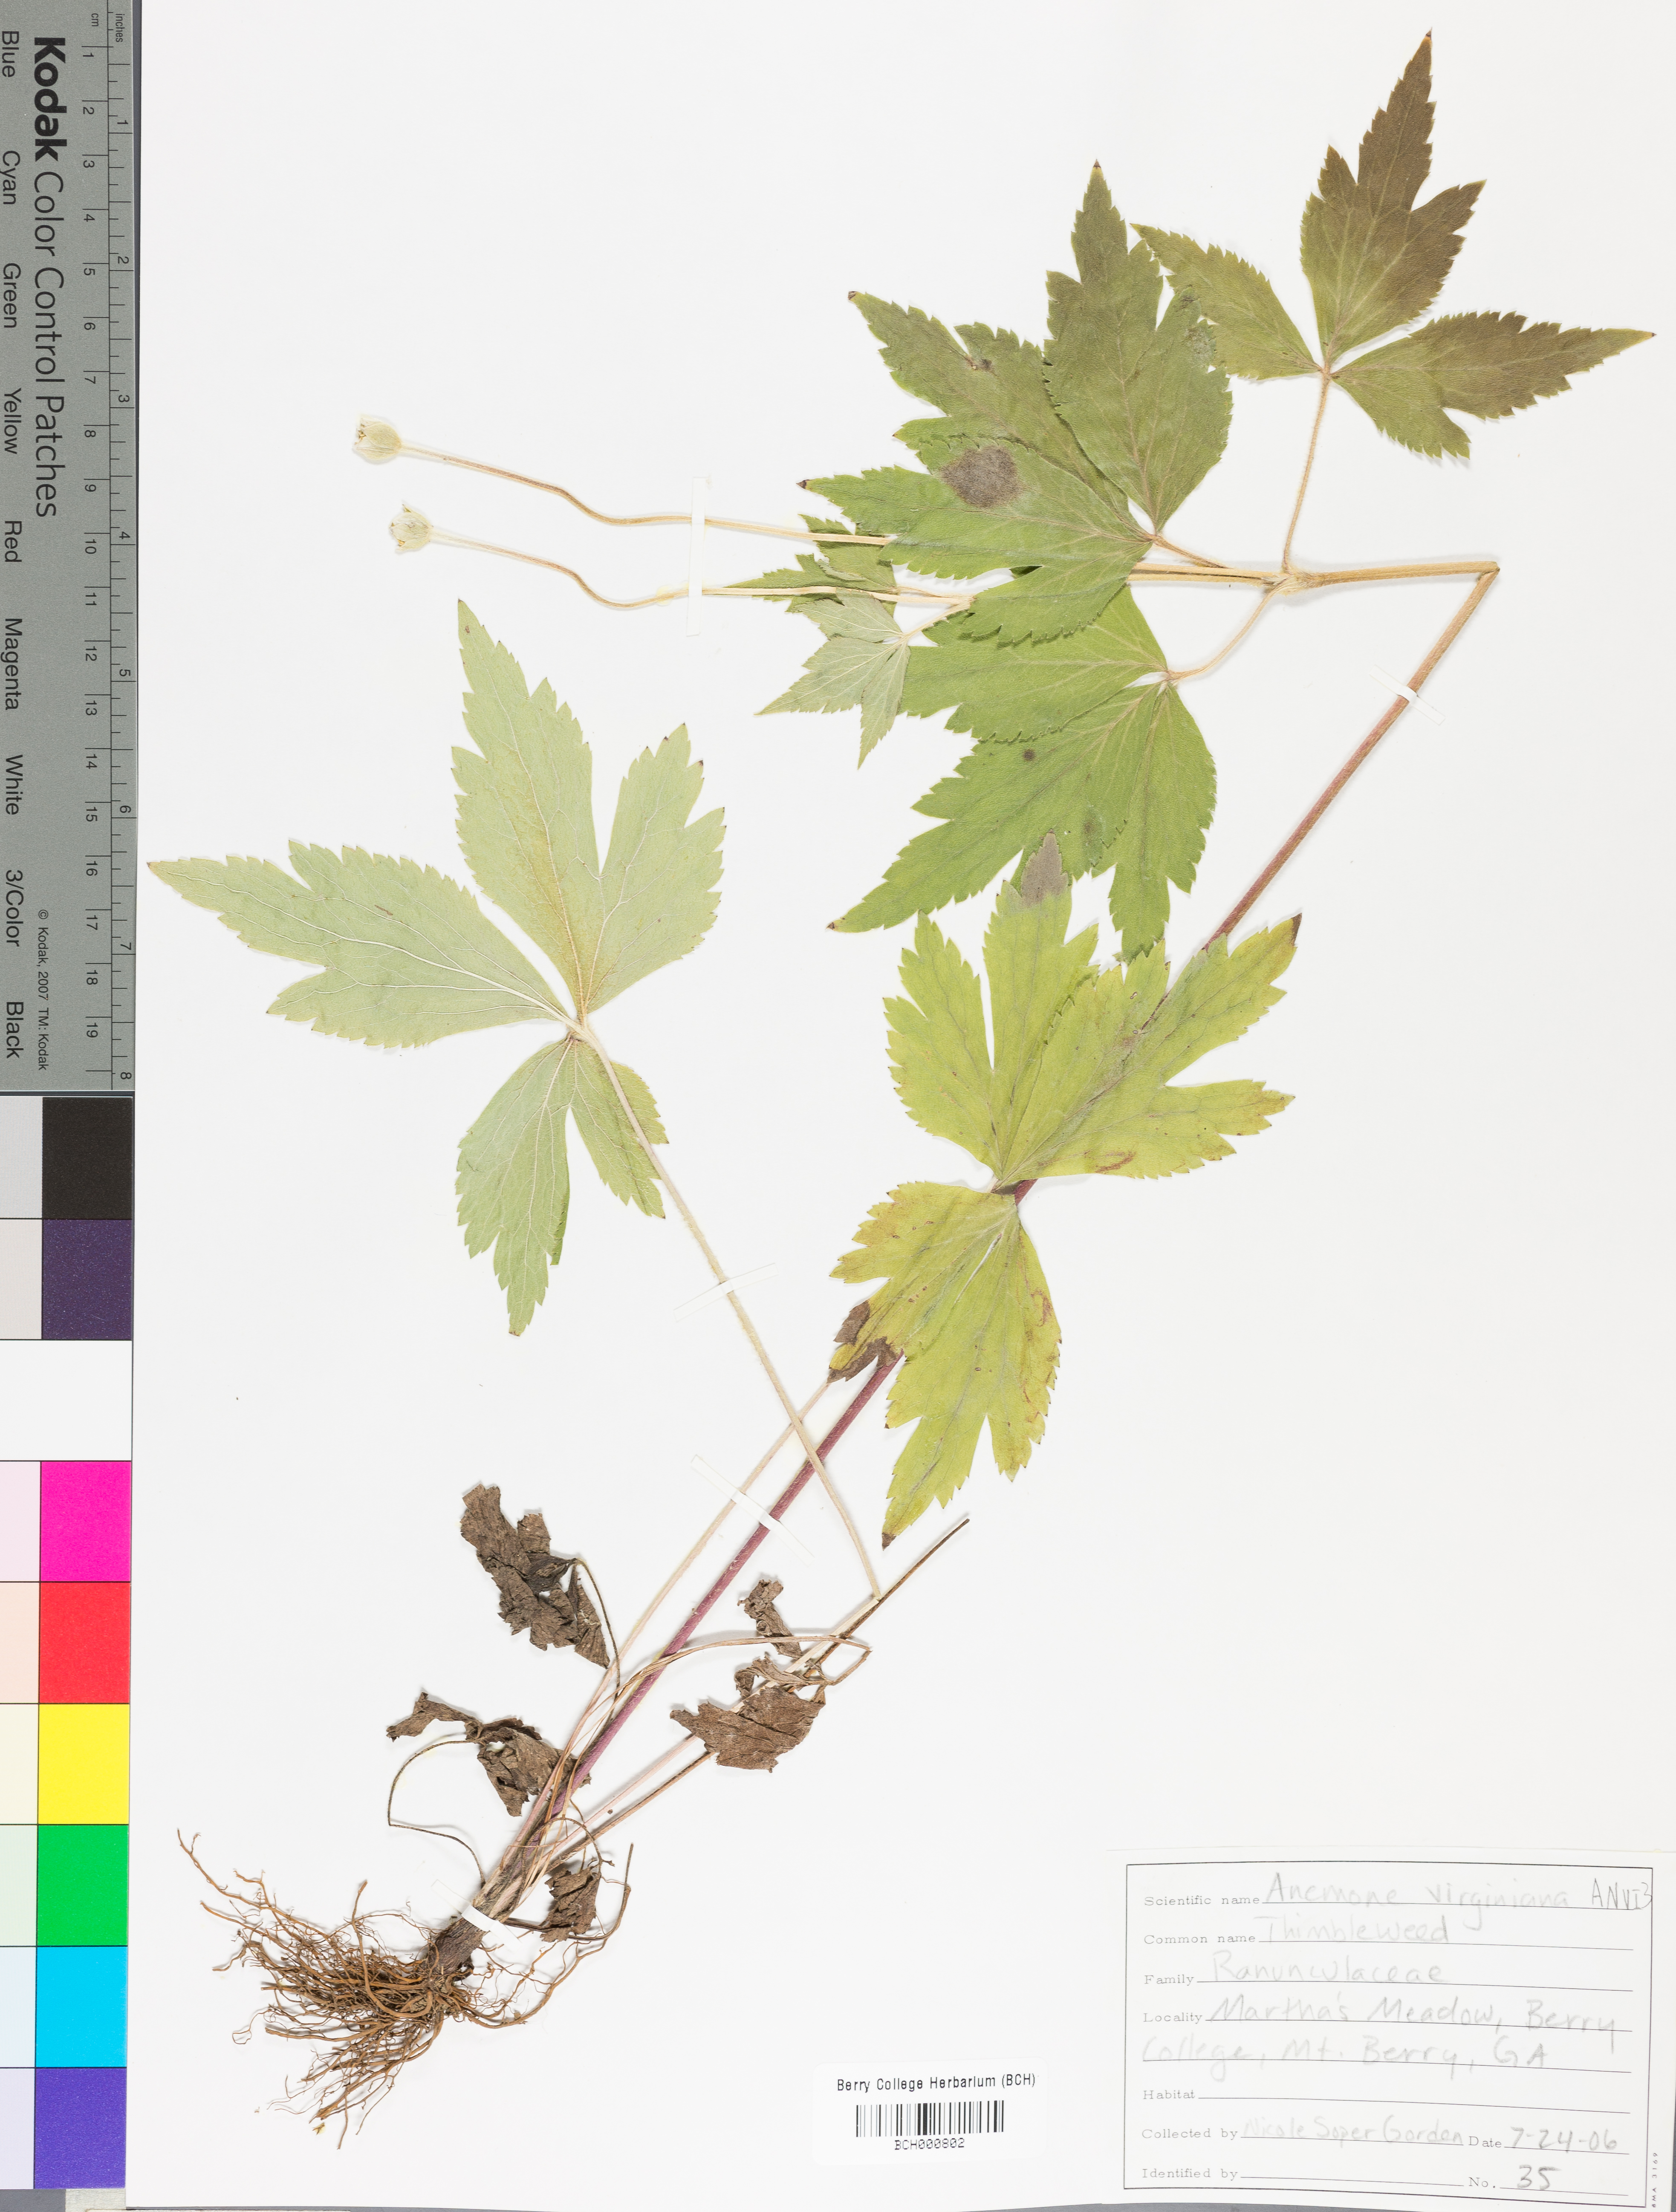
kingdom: Plantae
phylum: Tracheophyta
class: Magnoliopsida
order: Ranunculales
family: Ranunculaceae
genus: Anemone
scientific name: Anemone virginiana
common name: Tall anemone
